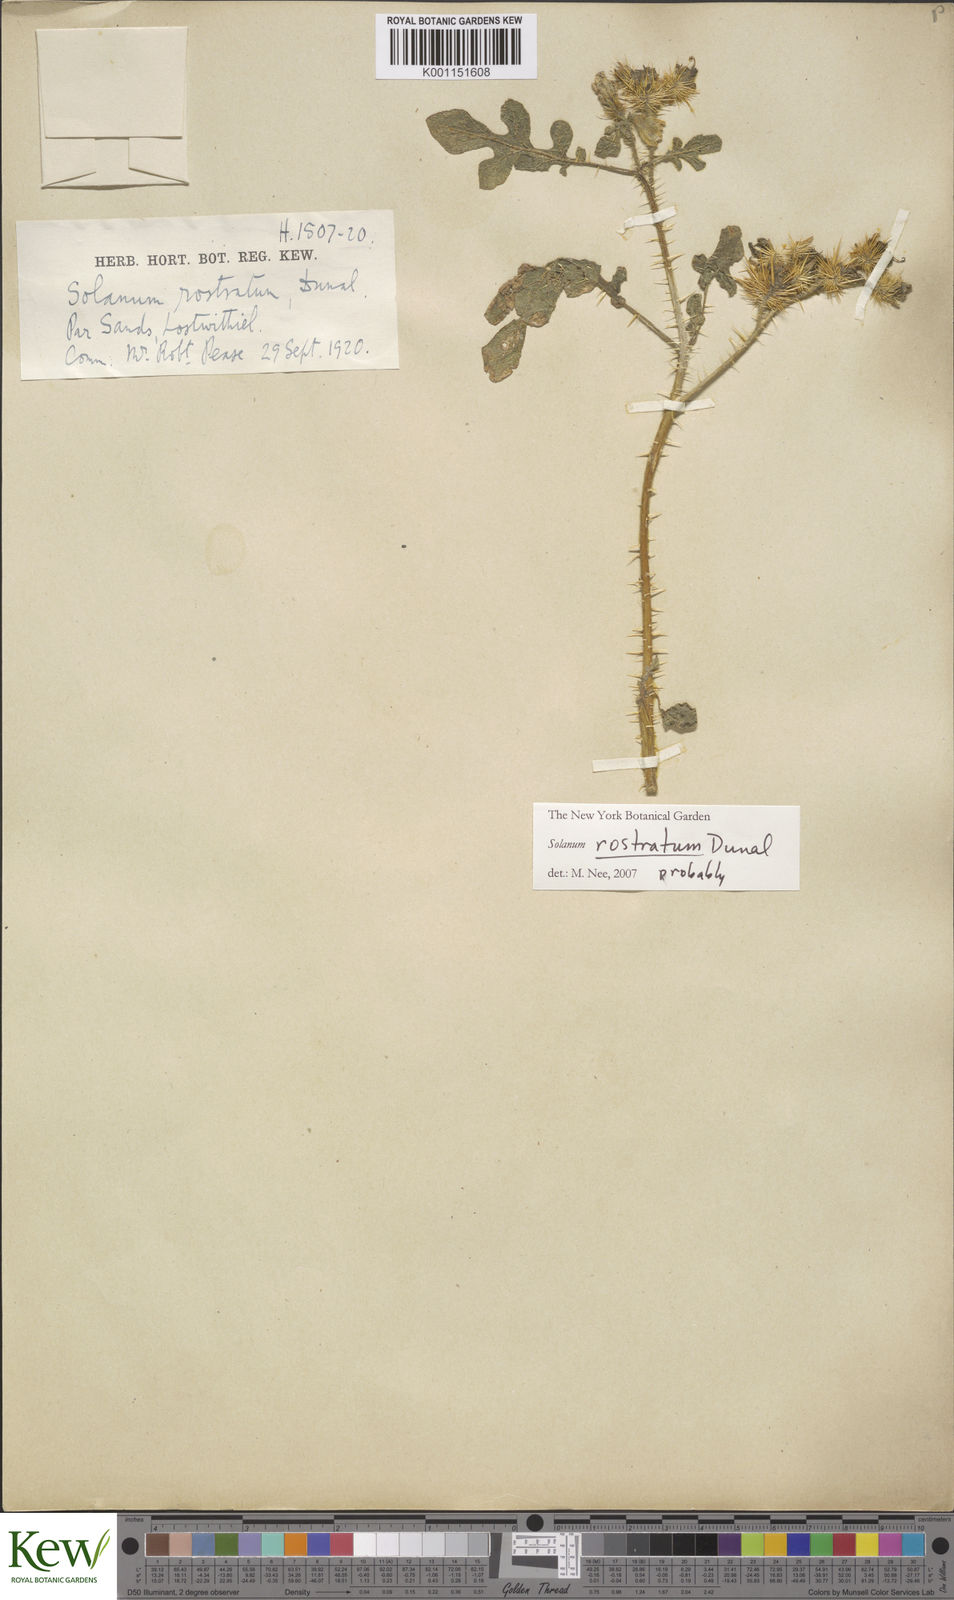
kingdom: Plantae
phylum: Tracheophyta
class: Magnoliopsida
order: Solanales
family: Solanaceae
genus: Solanum
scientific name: Solanum angustifolium
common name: Buffalobur nightshade
